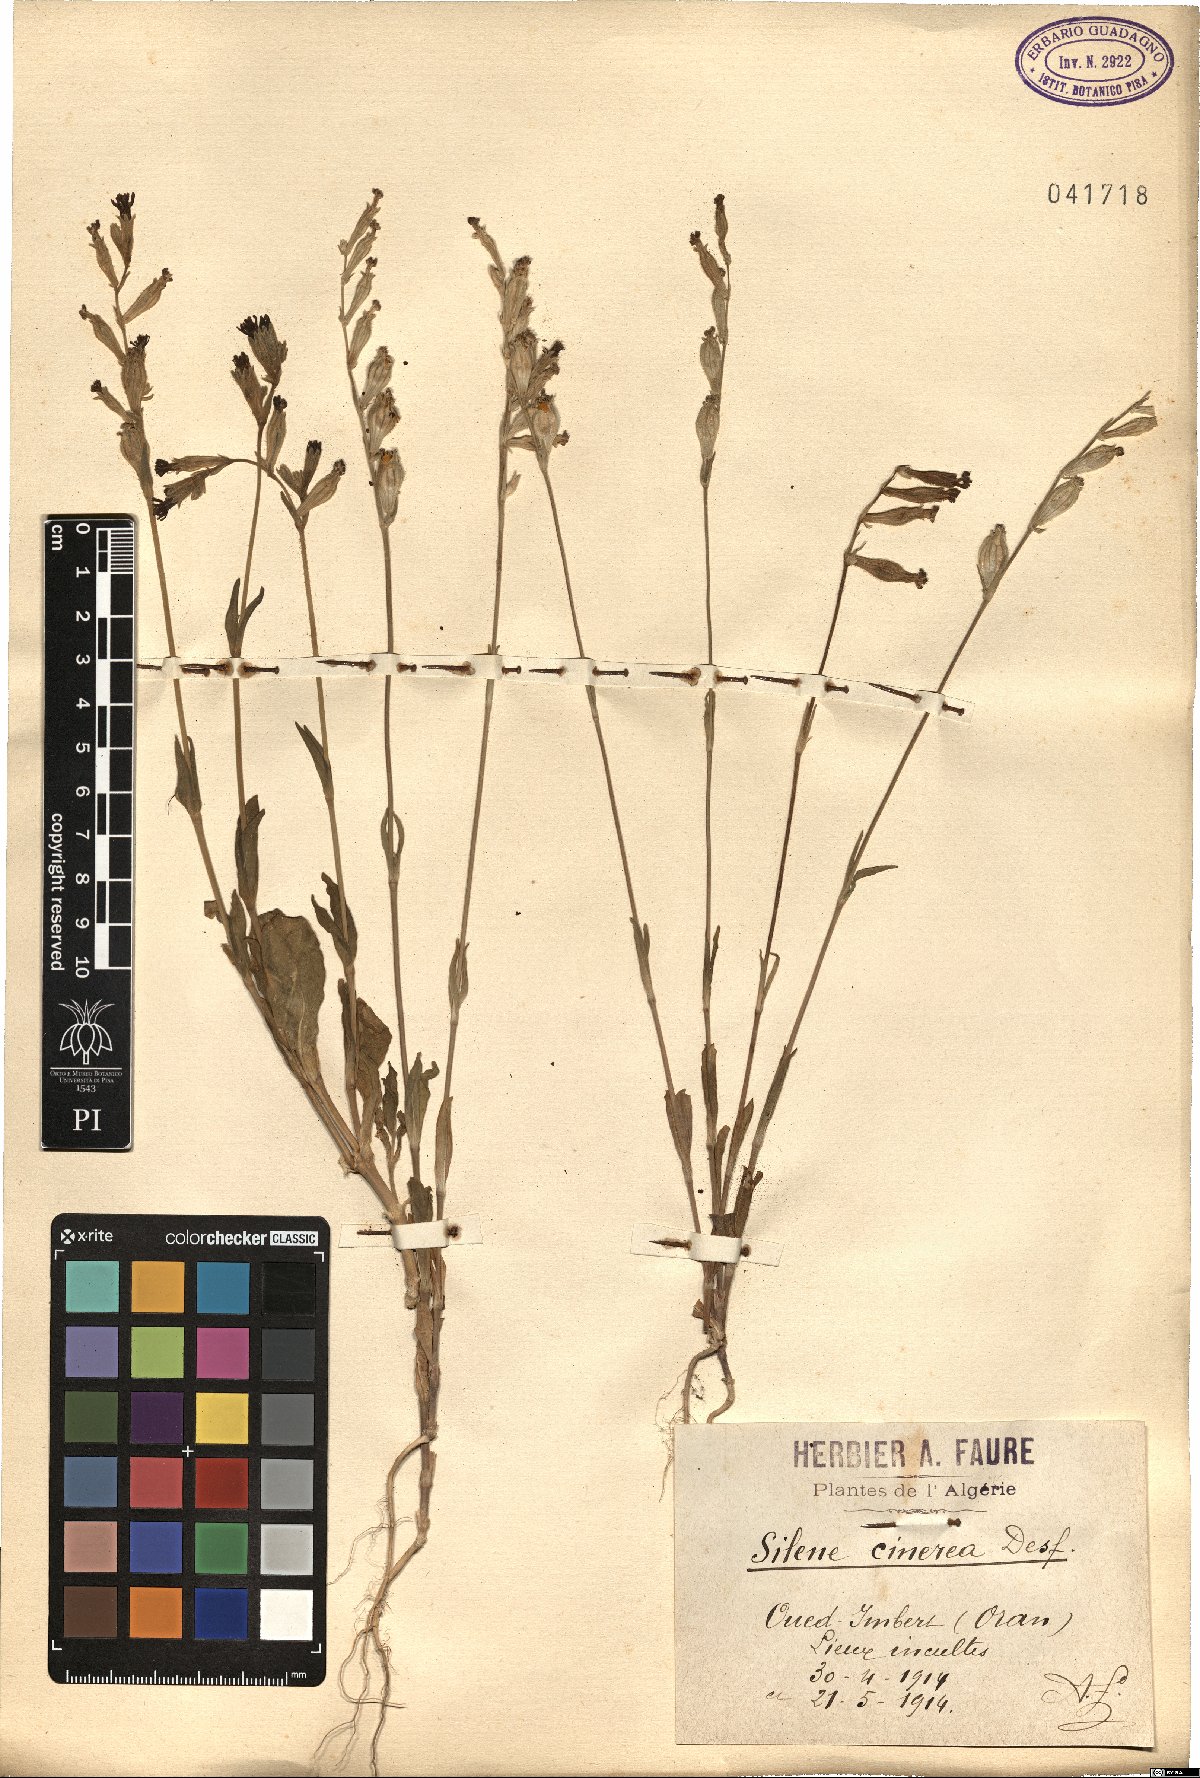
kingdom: Plantae
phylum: Tracheophyta
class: Magnoliopsida
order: Caryophyllales
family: Caryophyllaceae
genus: Silene
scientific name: Silene cinerea
